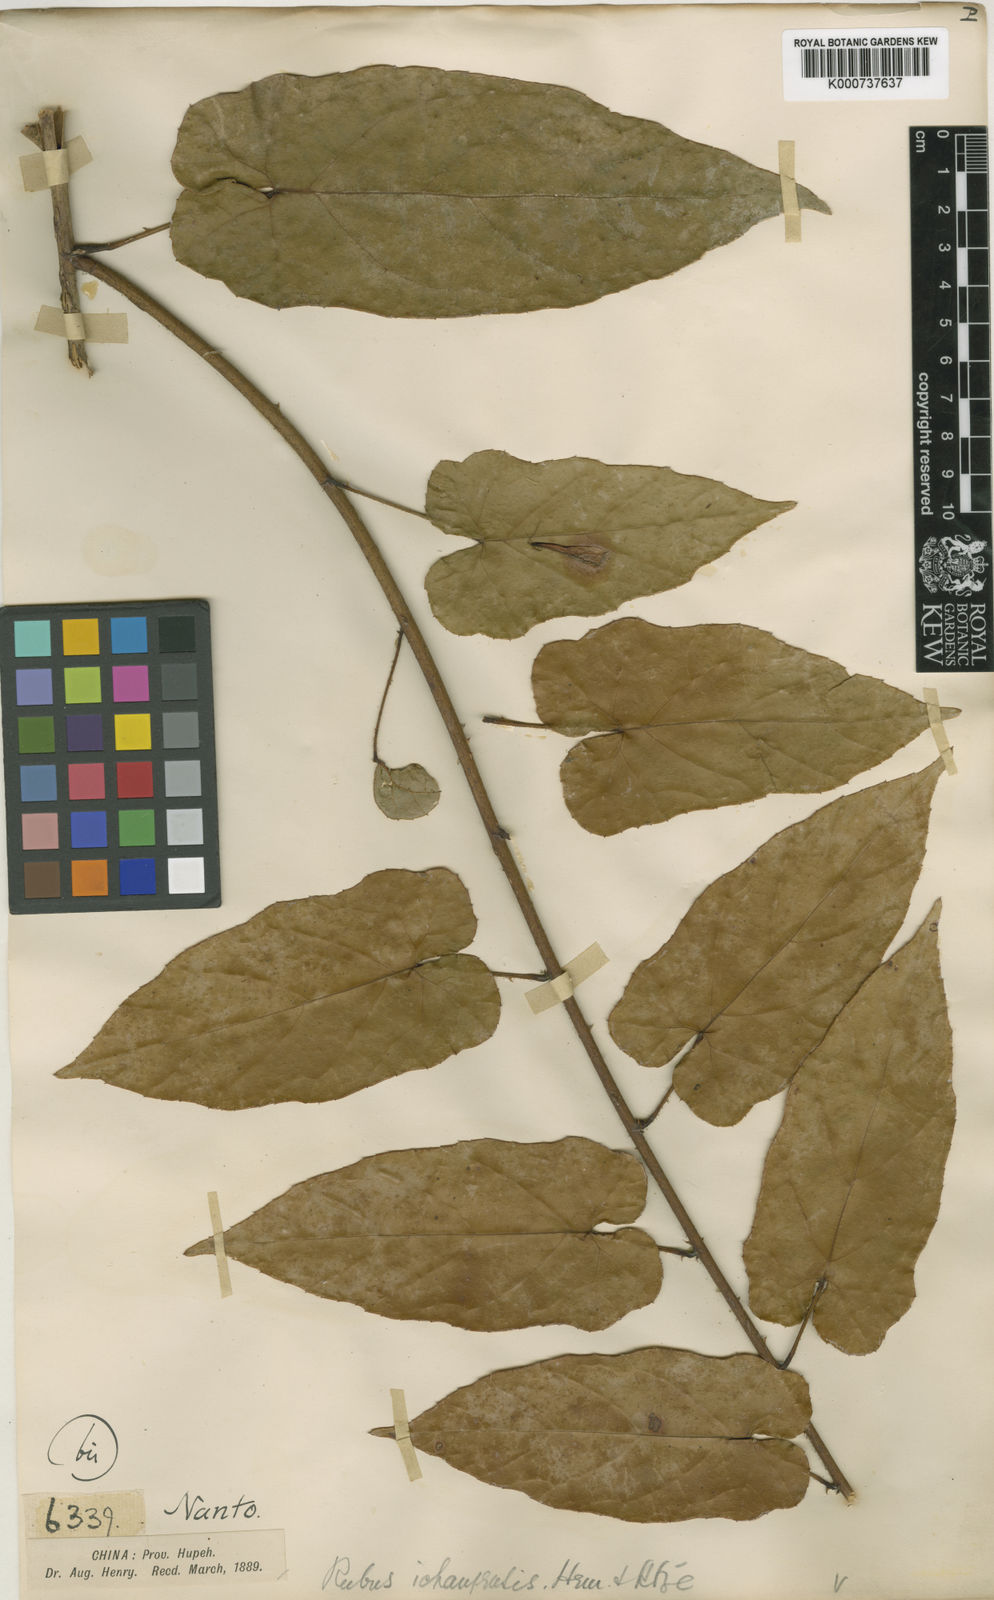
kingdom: Plantae
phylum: Tracheophyta
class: Magnoliopsida
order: Rosales
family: Rosaceae
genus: Rubus
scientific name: Rubus ichangensis
